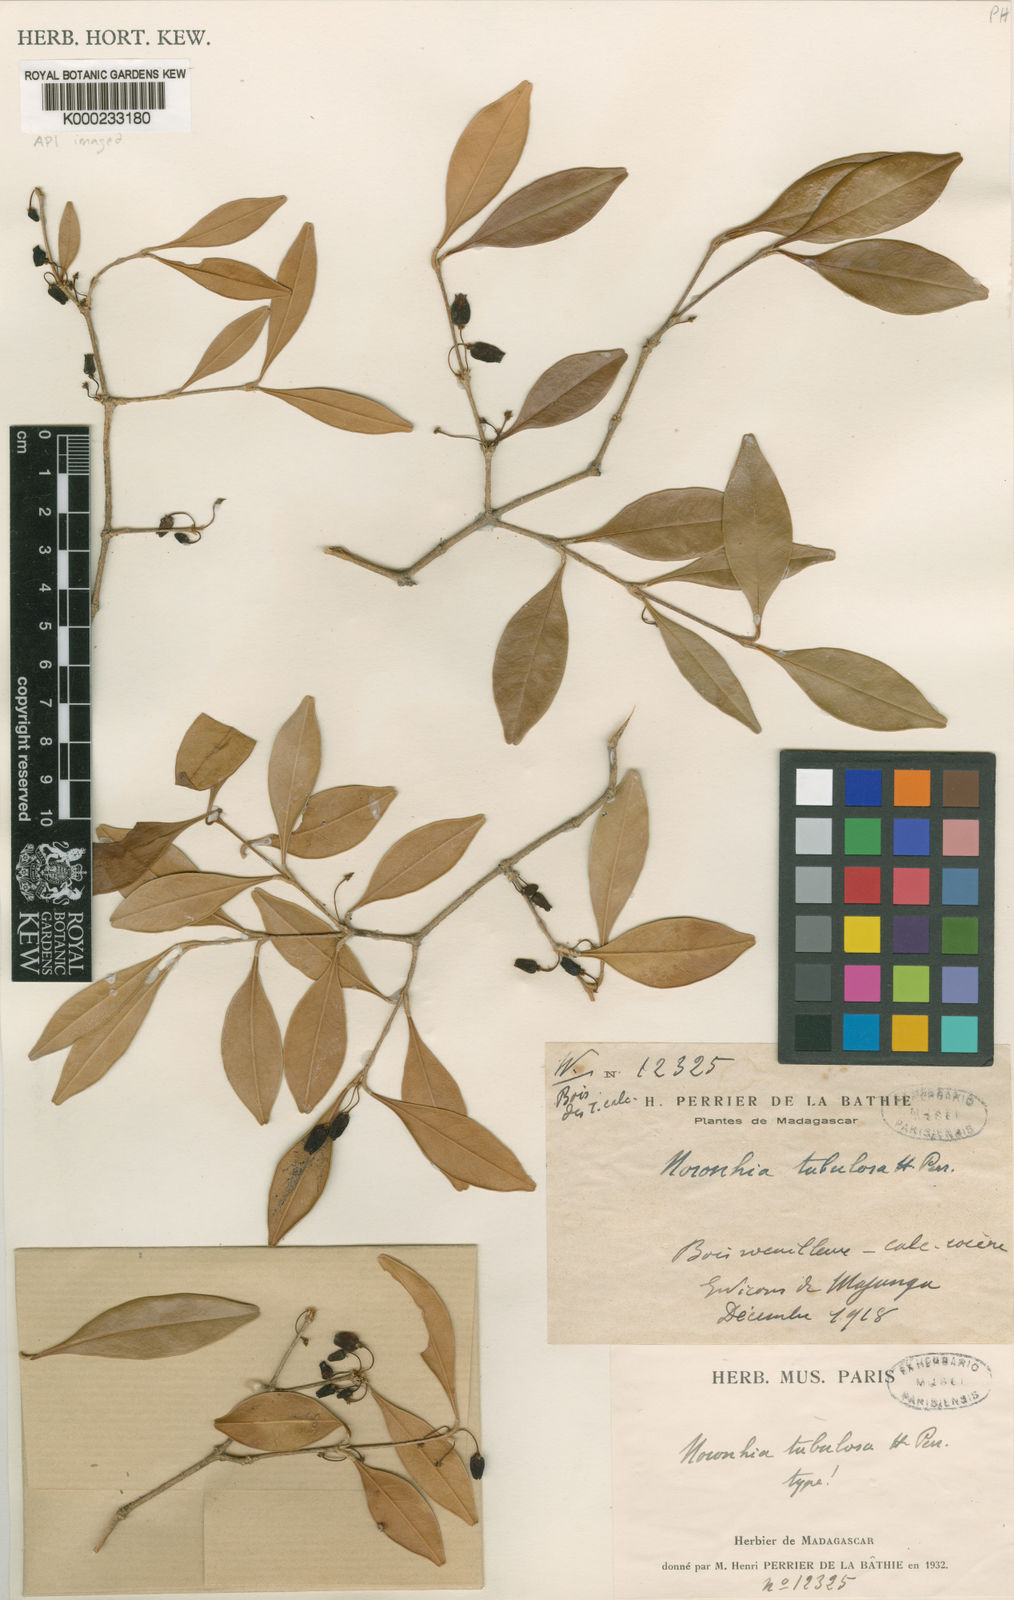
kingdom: Plantae
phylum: Tracheophyta
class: Magnoliopsida
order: Lamiales
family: Oleaceae
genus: Noronhia
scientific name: Noronhia tubulosa
